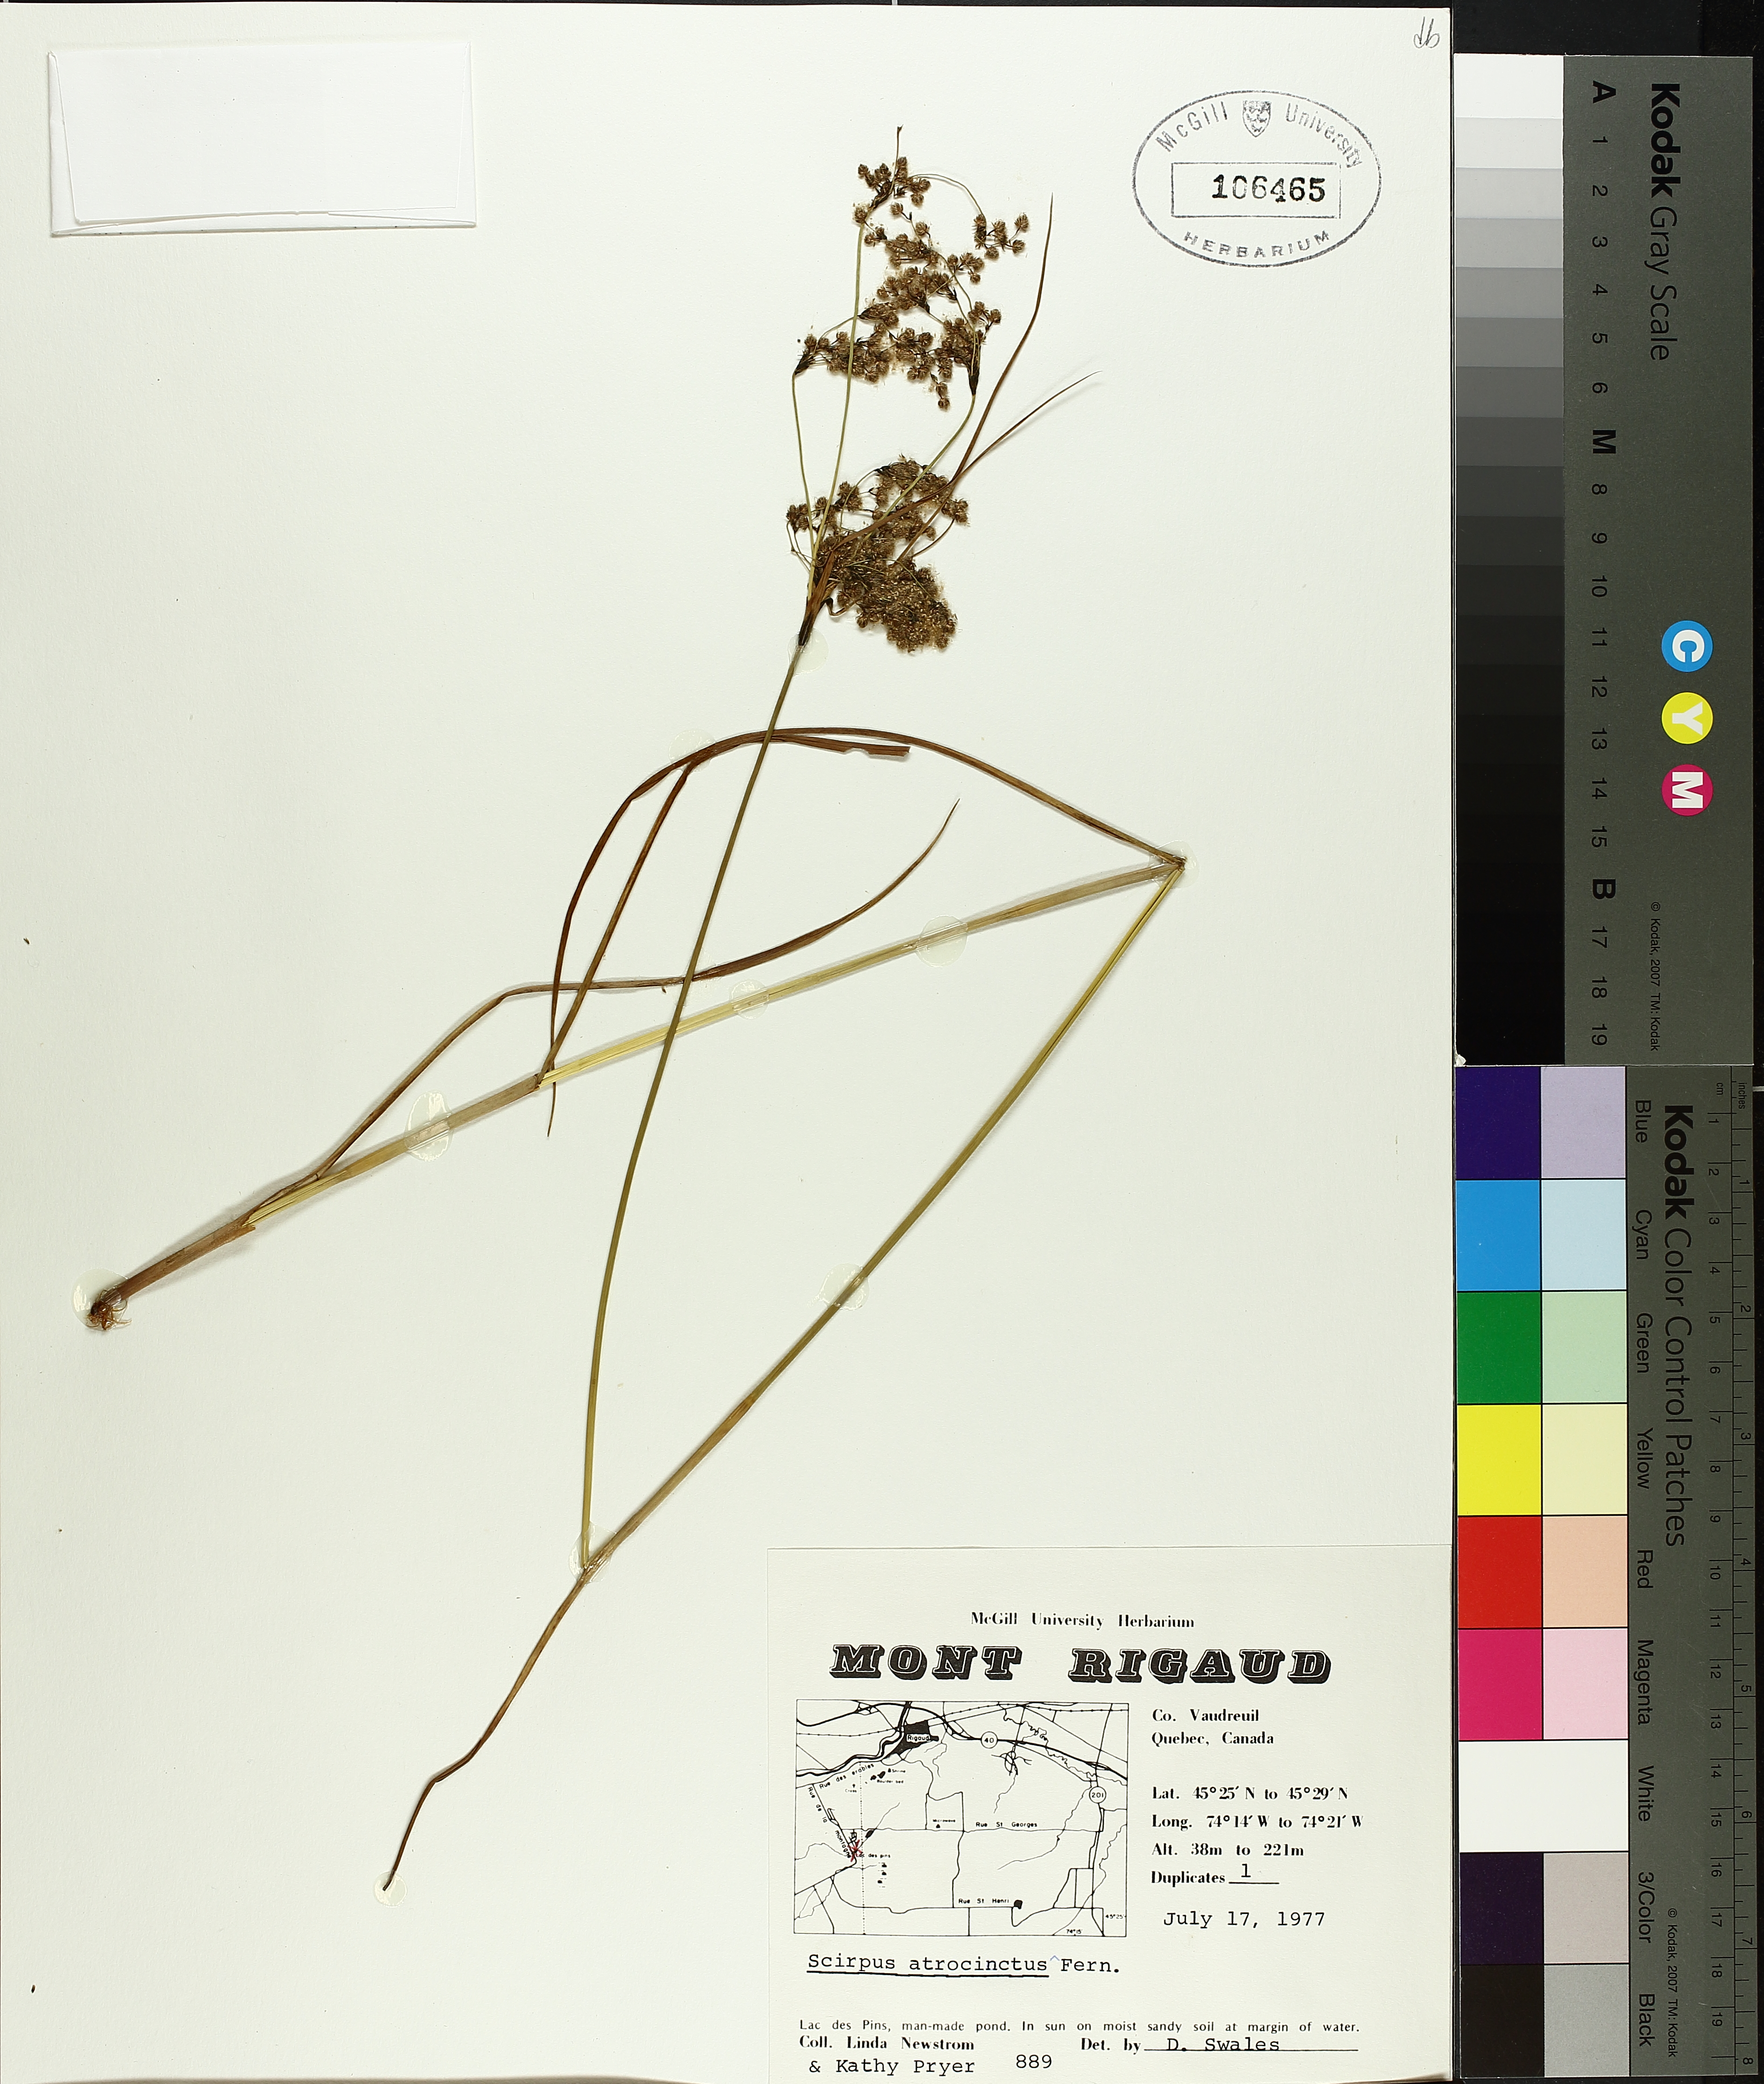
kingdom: Plantae
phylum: Tracheophyta
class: Liliopsida
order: Poales
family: Cyperaceae
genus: Scirpus
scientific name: Scirpus atrocinctus
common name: Black-girdled bulrush
